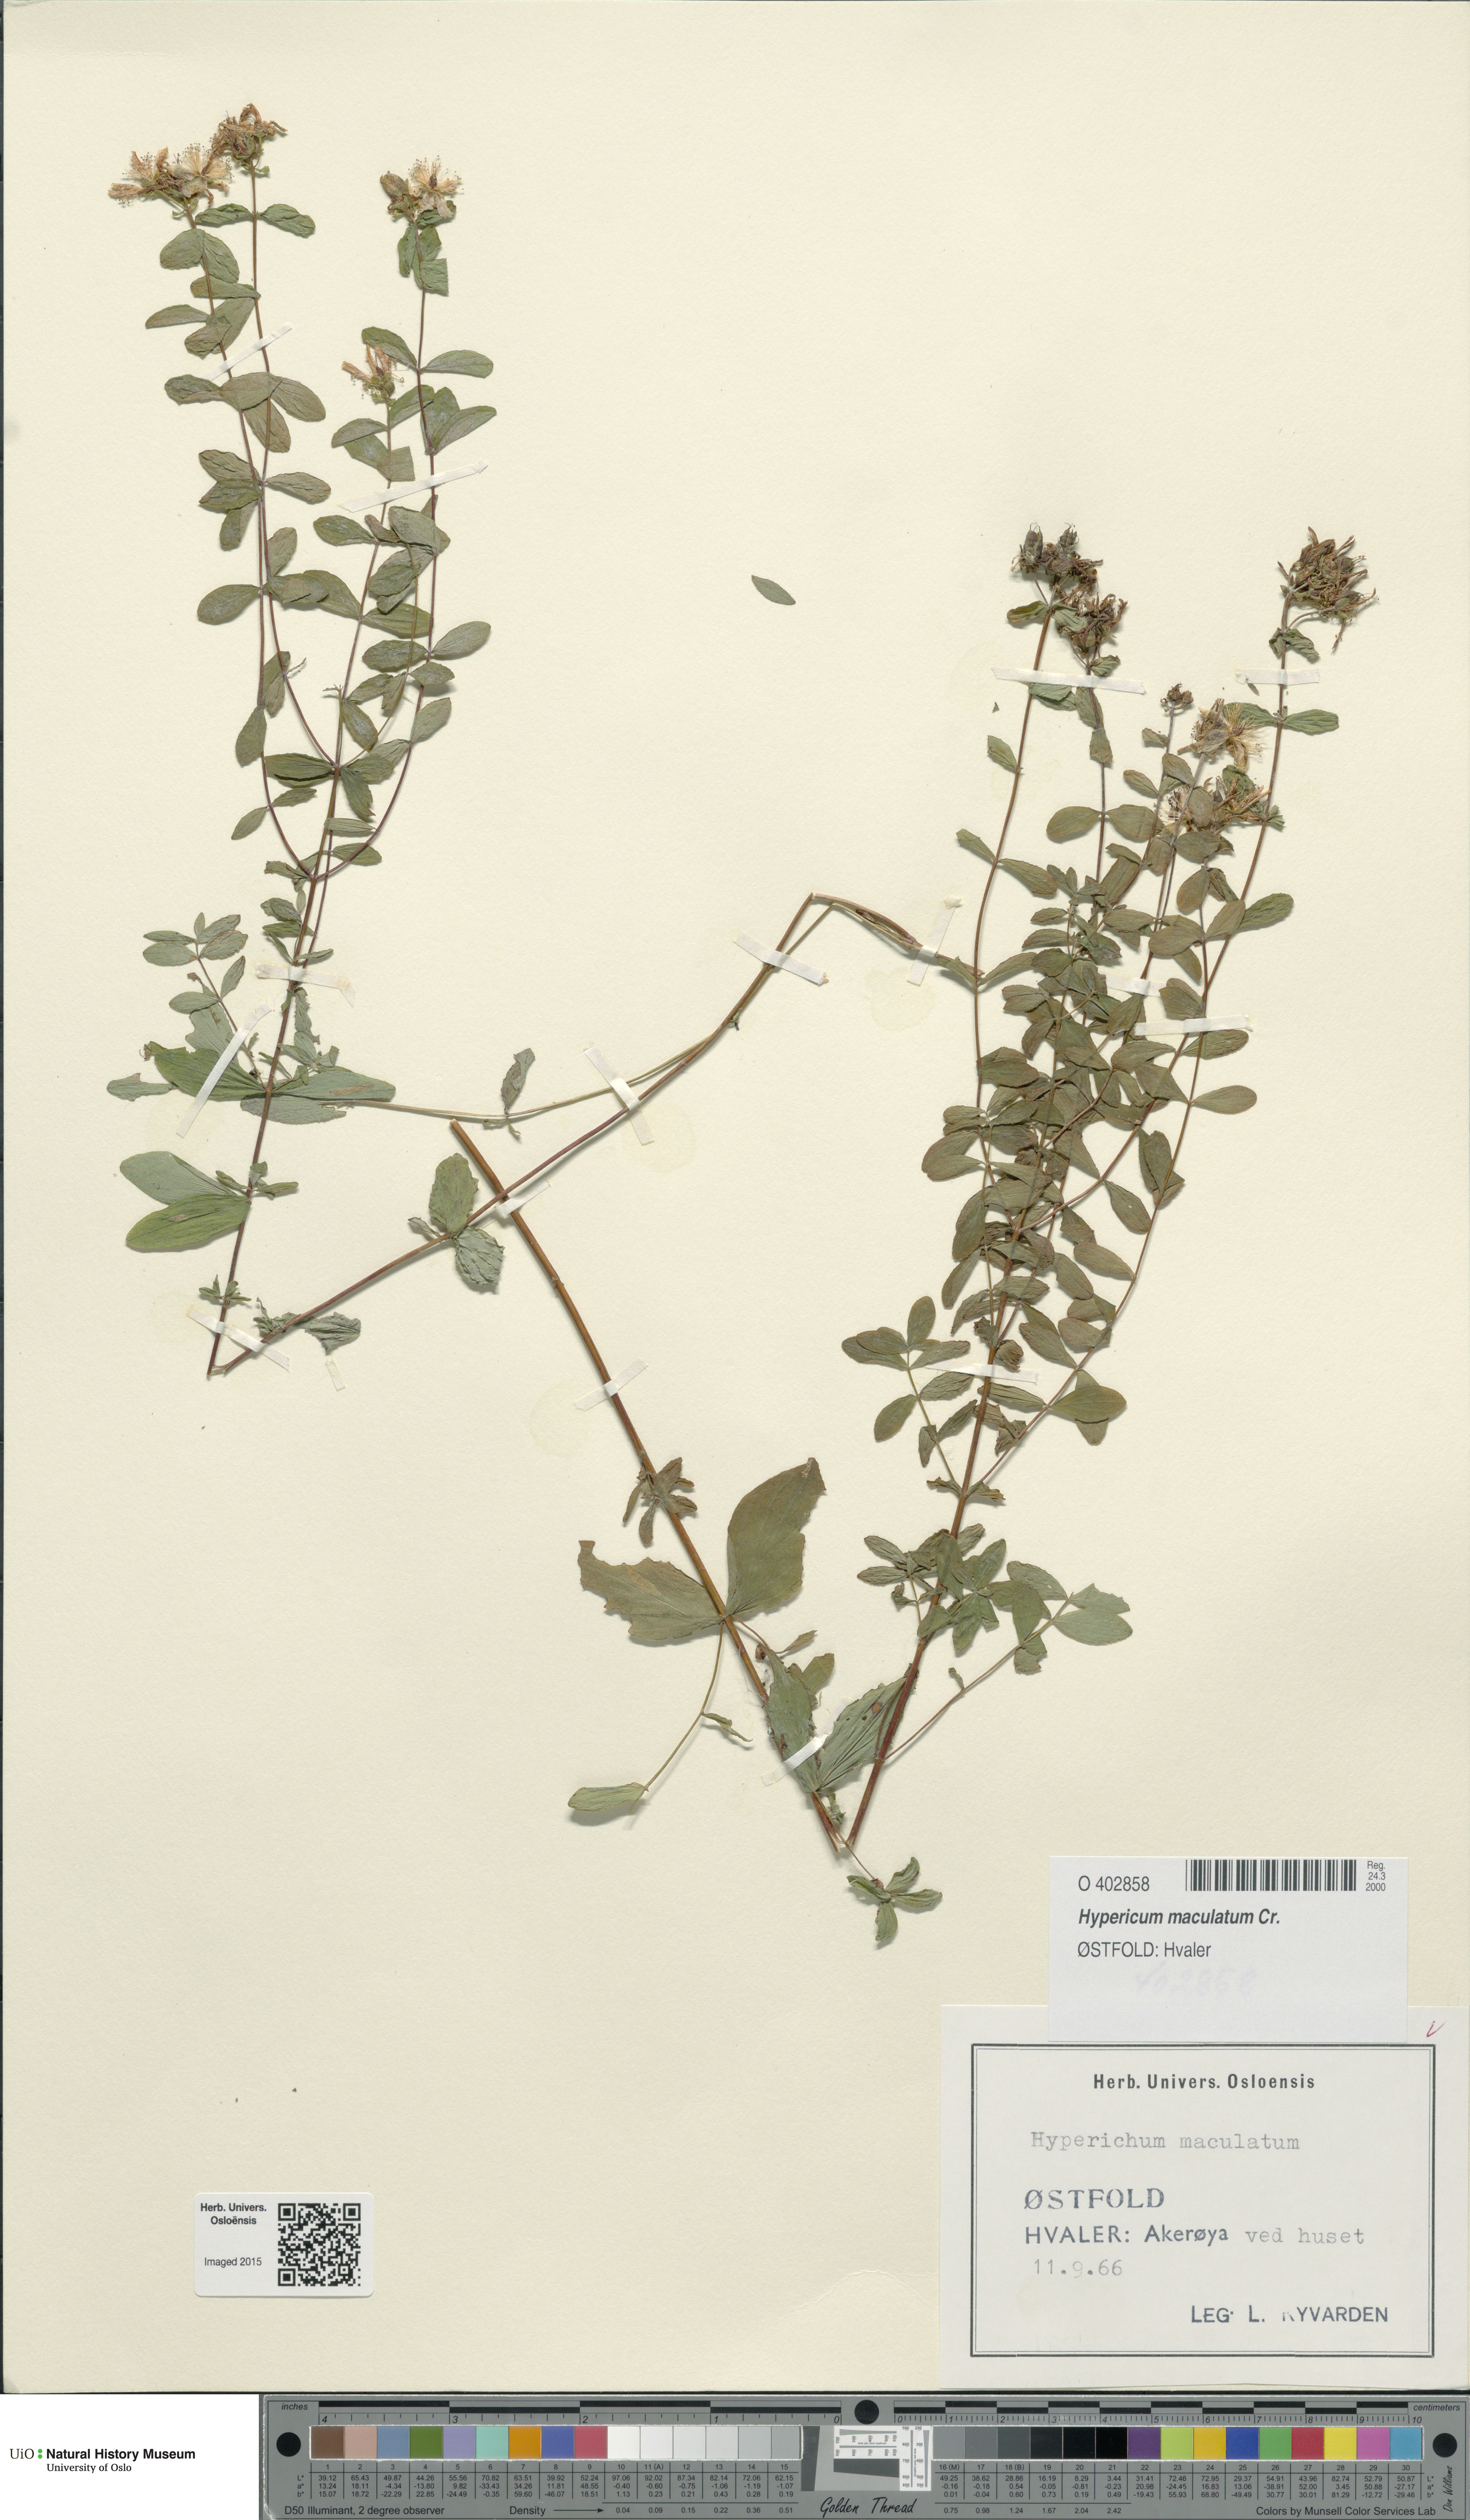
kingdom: Plantae
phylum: Tracheophyta
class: Magnoliopsida
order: Malpighiales
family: Hypericaceae
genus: Hypericum
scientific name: Hypericum maculatum
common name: Imperforate st. john's-wort
